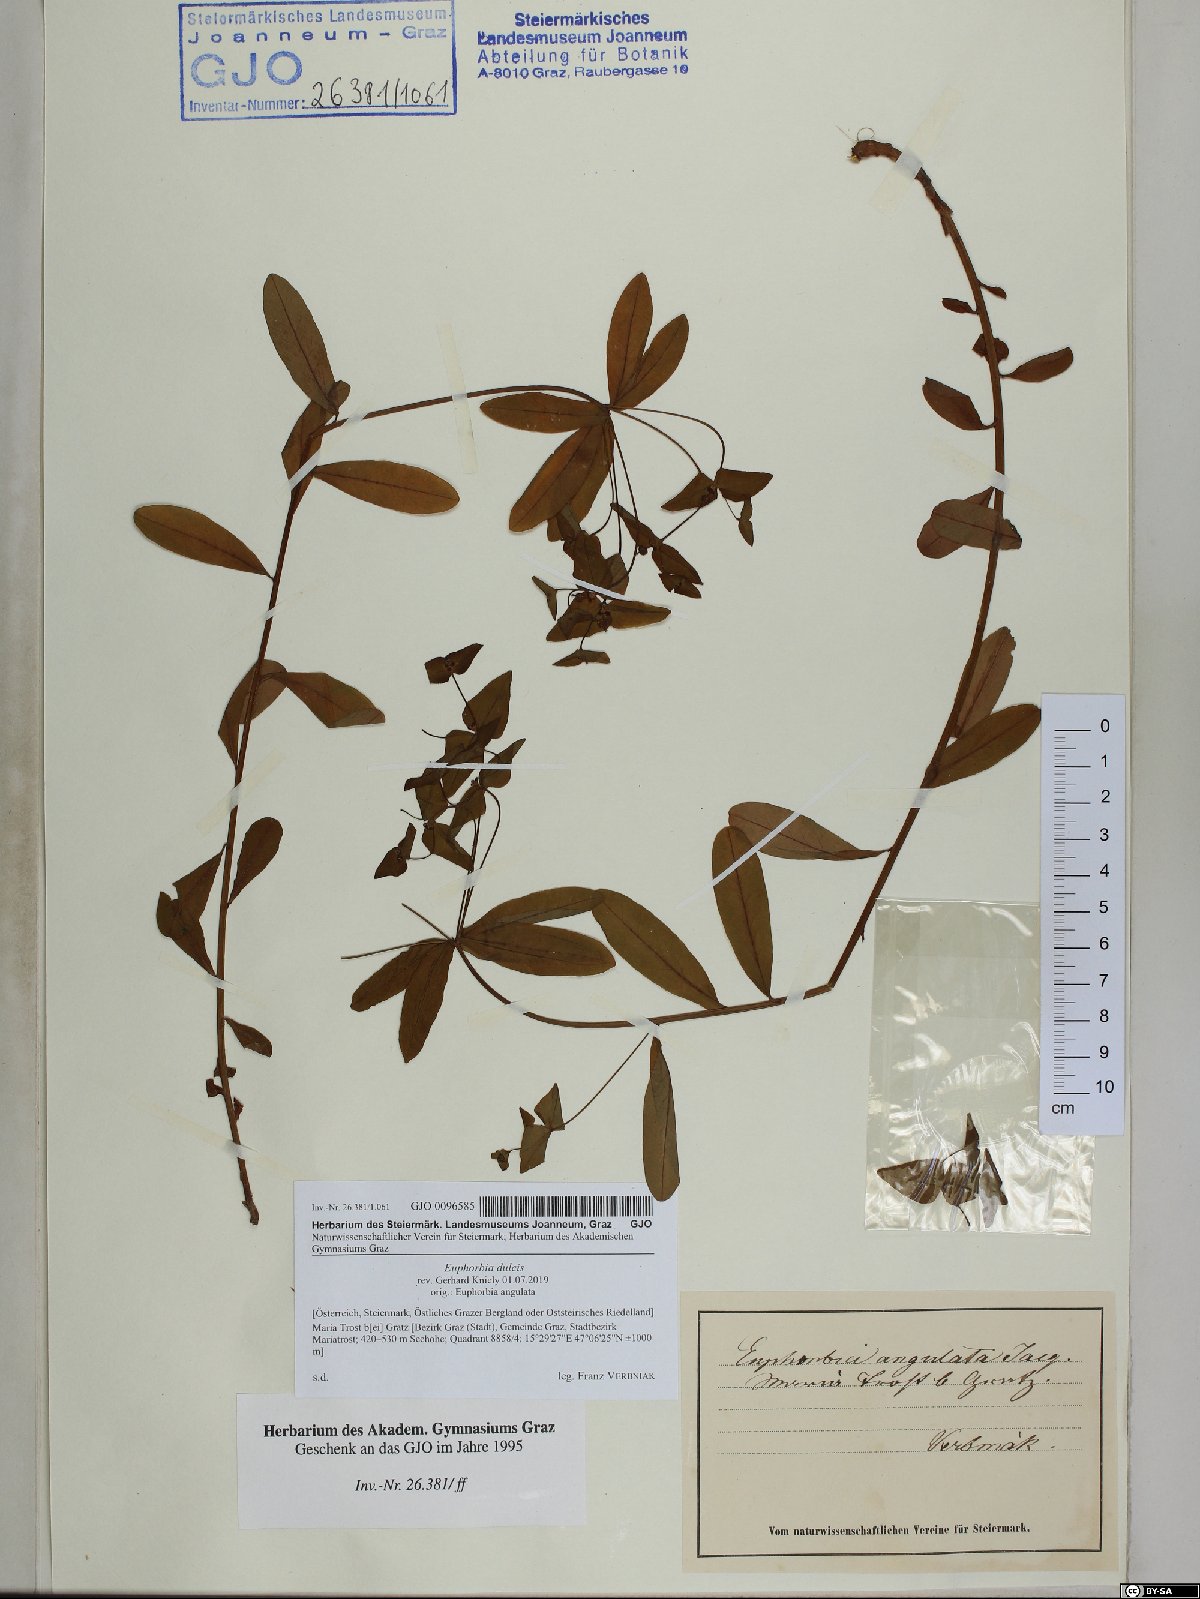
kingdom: Plantae
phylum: Tracheophyta
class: Magnoliopsida
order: Malpighiales
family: Euphorbiaceae
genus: Euphorbia
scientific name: Euphorbia dulcis
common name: Sweet spurge
